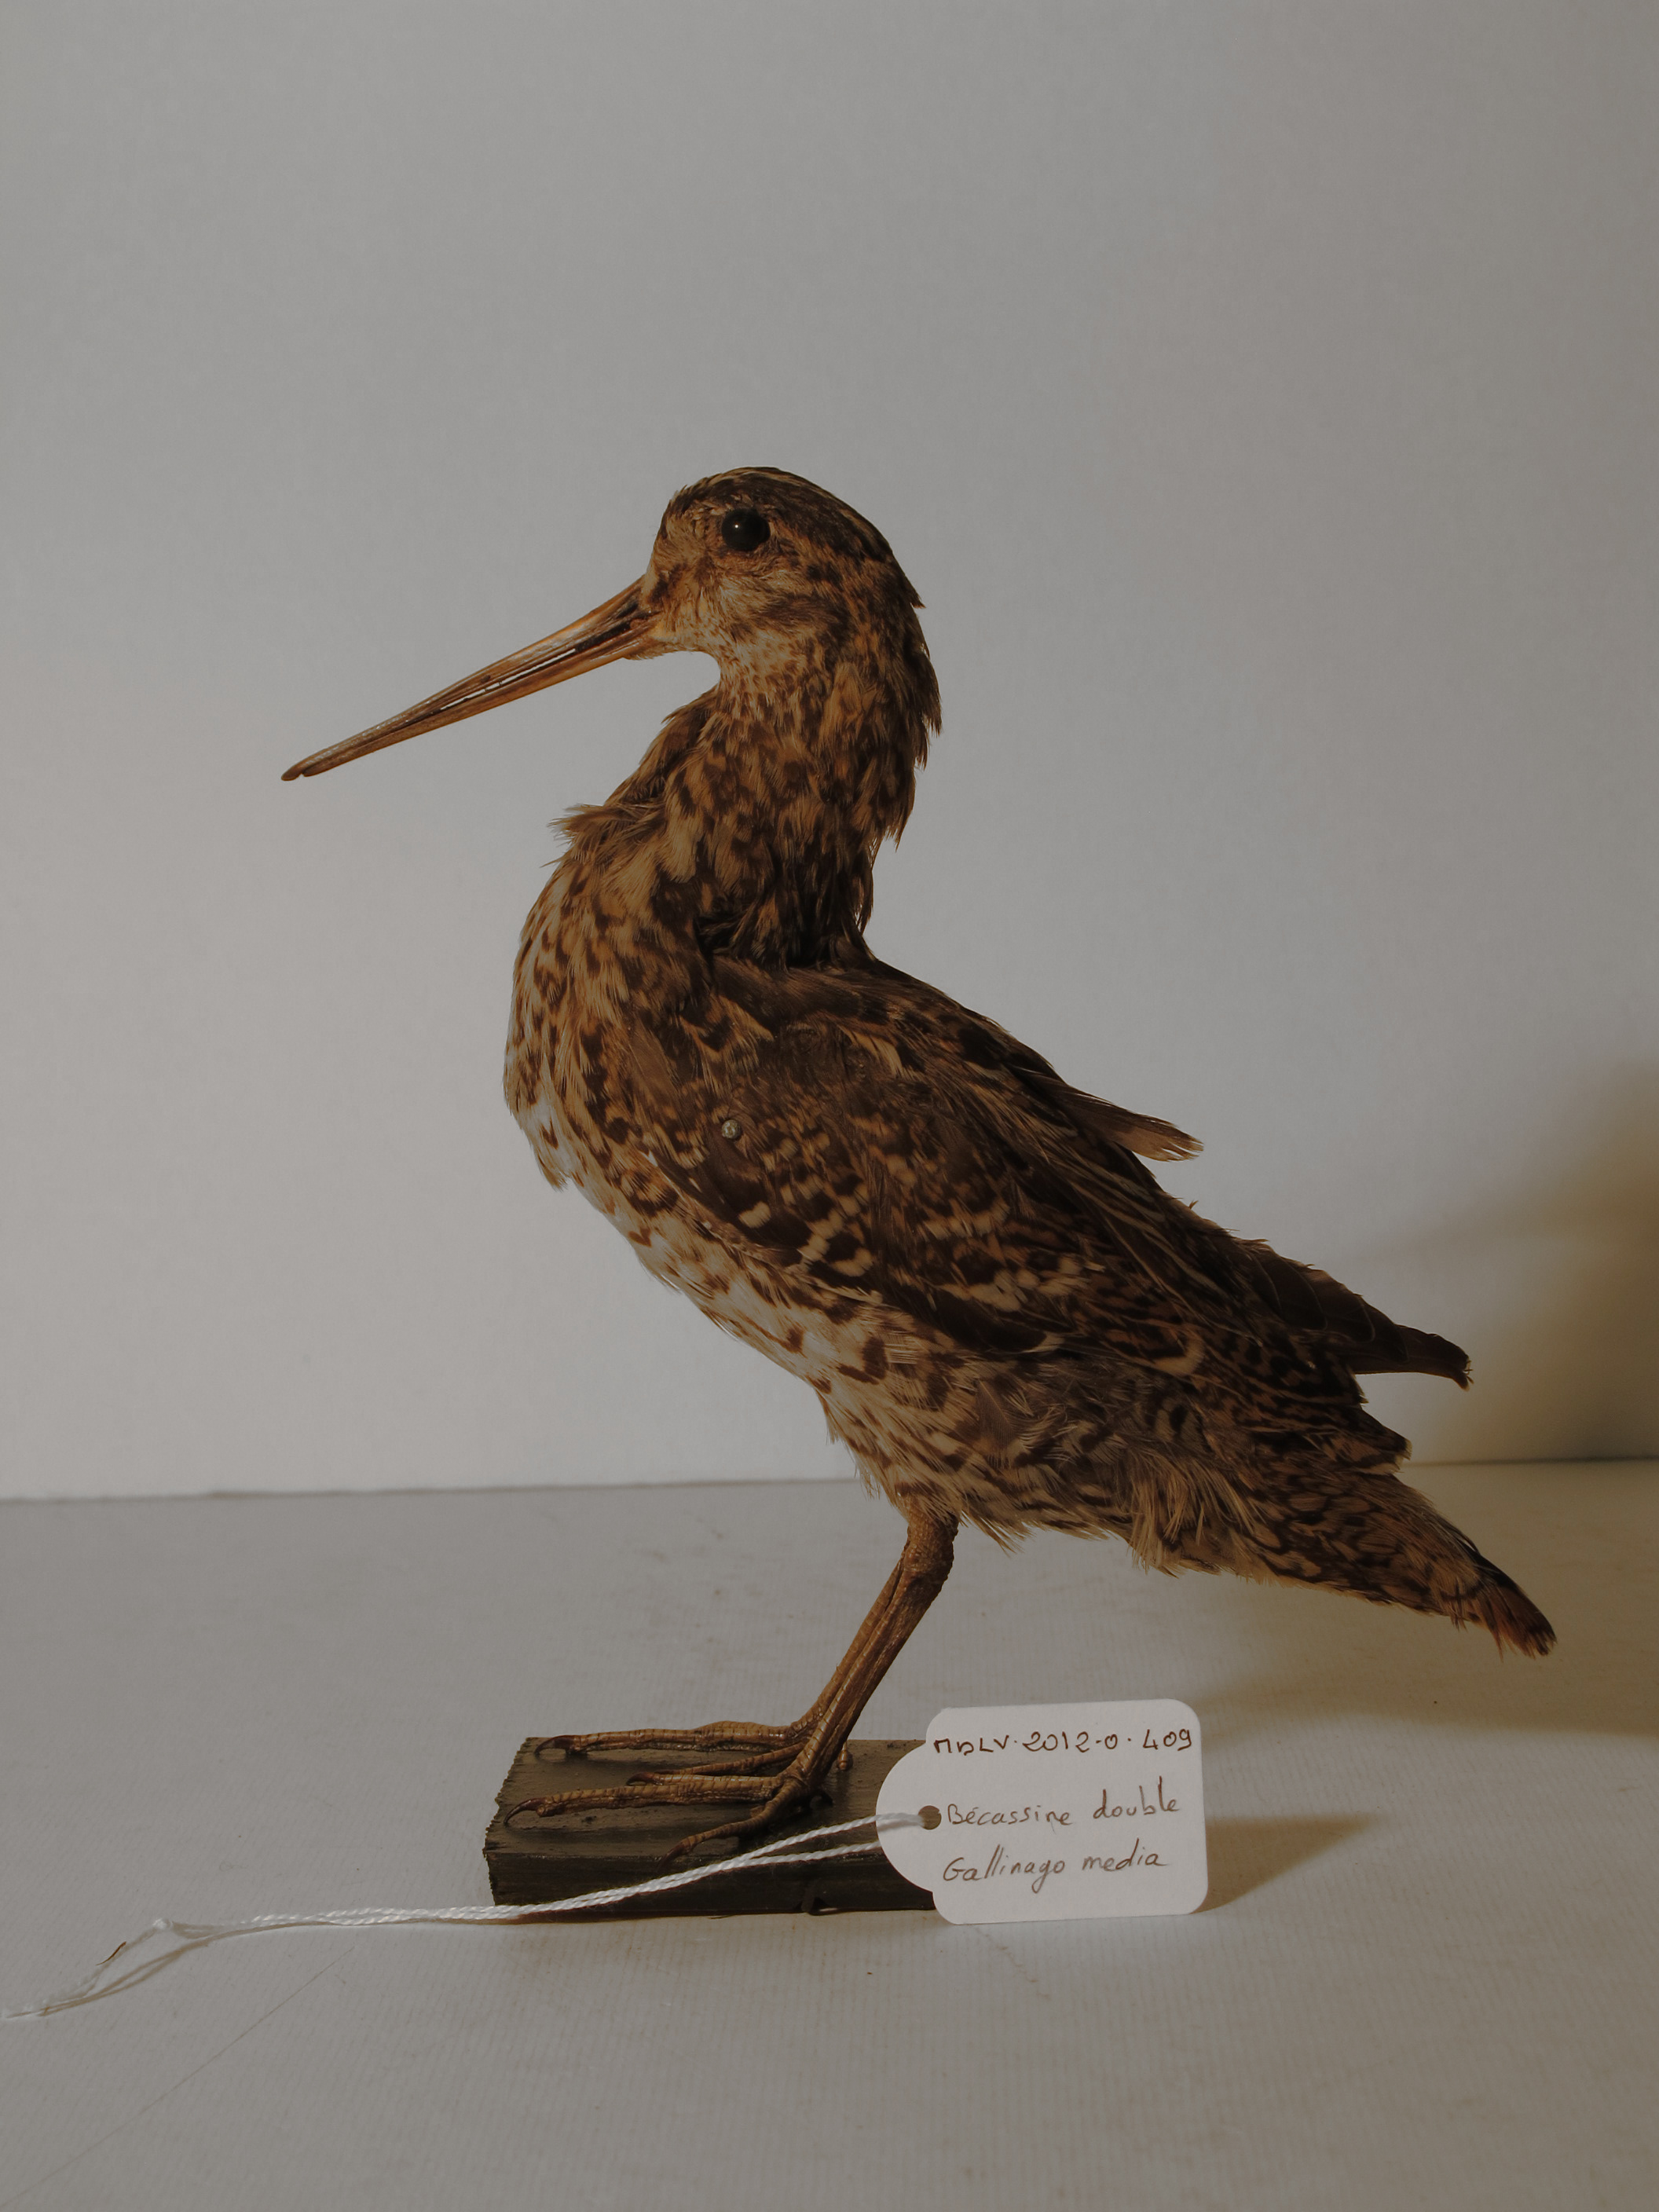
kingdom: Animalia
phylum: Chordata
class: Aves
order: Charadriiformes
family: Scolopacidae
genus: Gallinago
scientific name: Gallinago media
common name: Great Snipe
